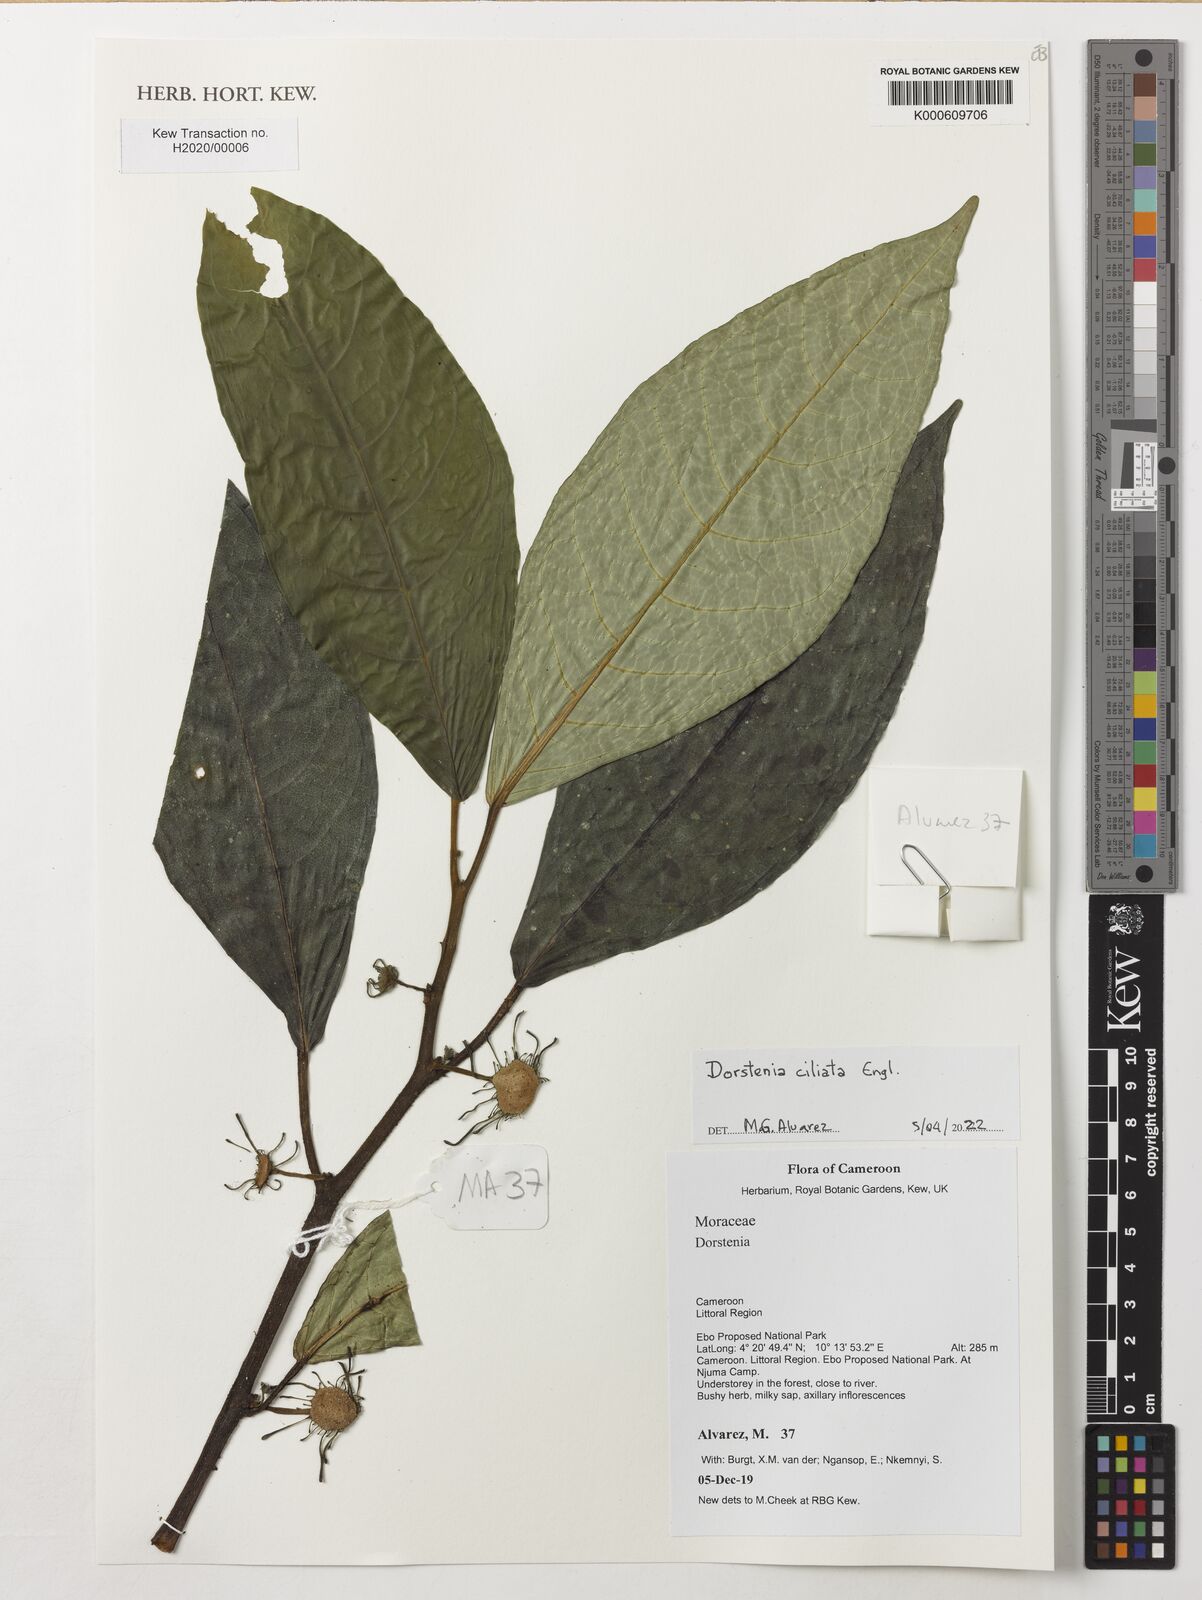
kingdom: Plantae
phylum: Tracheophyta
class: Magnoliopsida
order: Rosales
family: Moraceae
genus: Dorstenia
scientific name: Dorstenia ciliata
